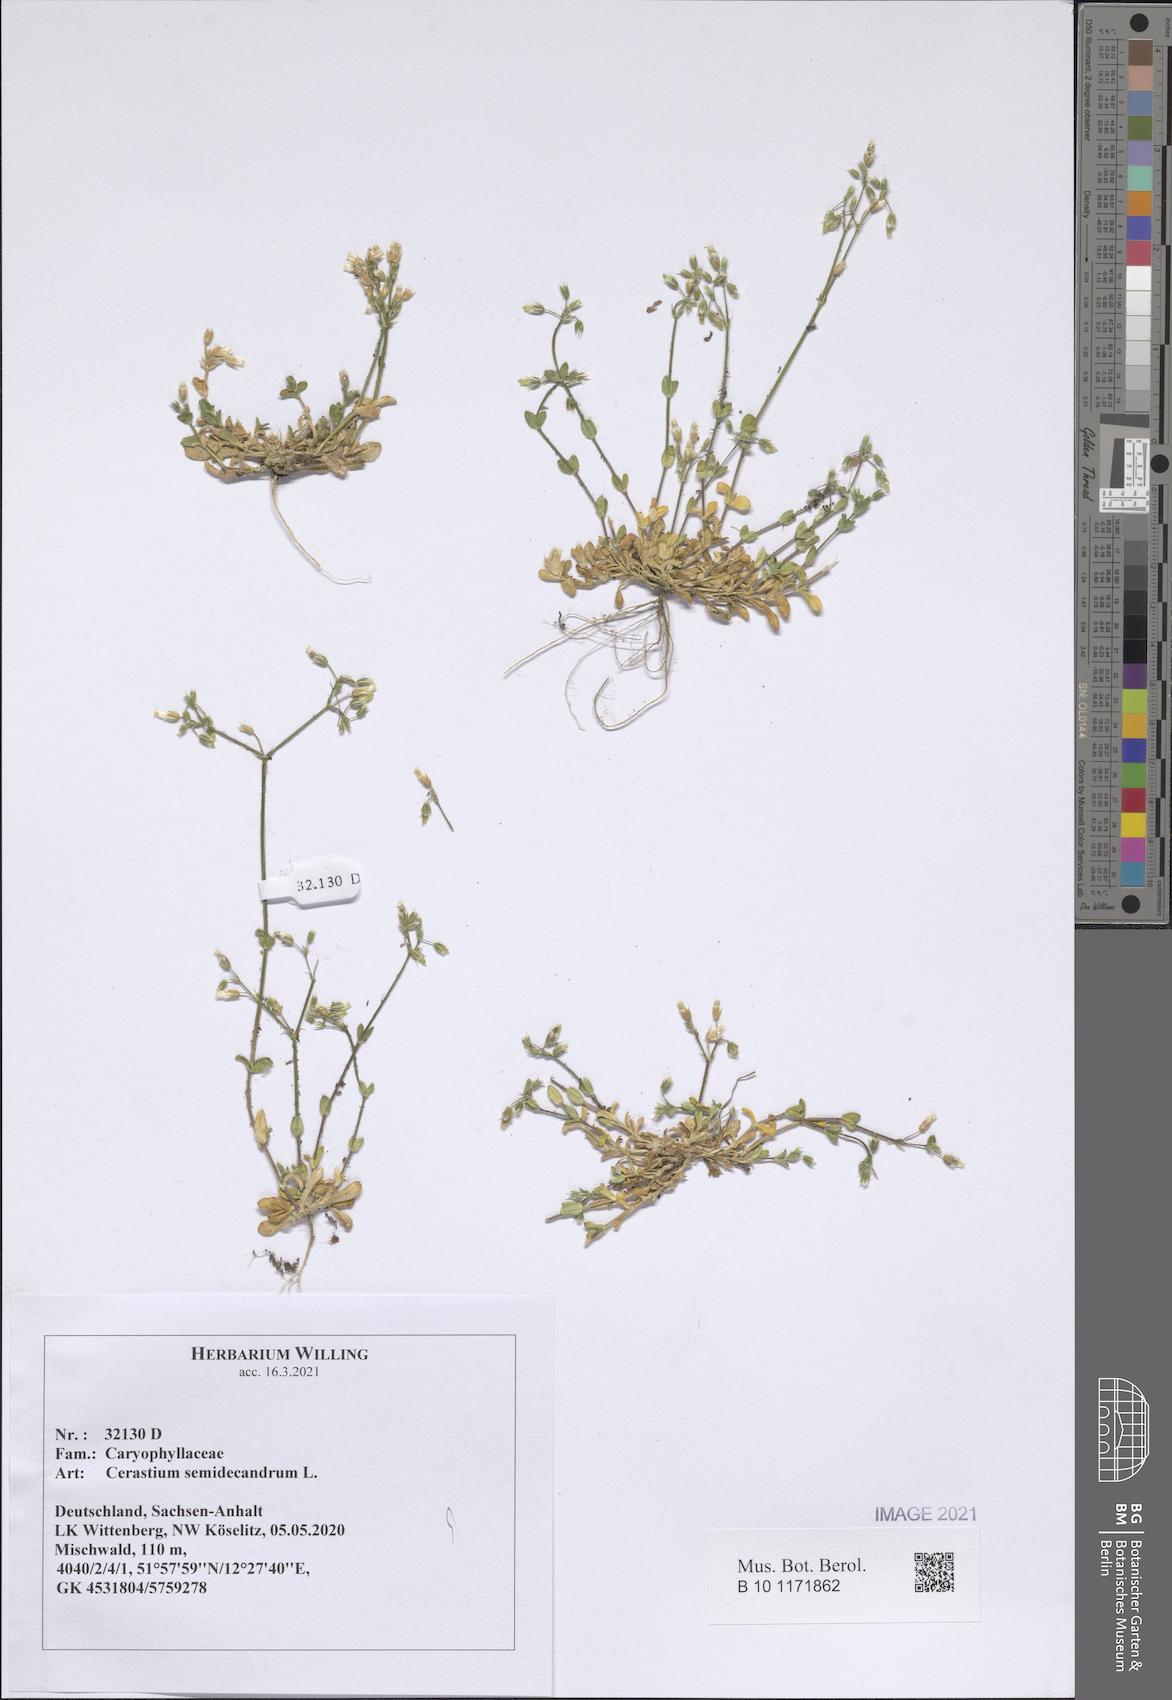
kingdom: Plantae
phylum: Tracheophyta
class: Magnoliopsida
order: Caryophyllales
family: Caryophyllaceae
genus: Cerastium
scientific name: Cerastium semidecandrum
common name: Little mouse-ear
